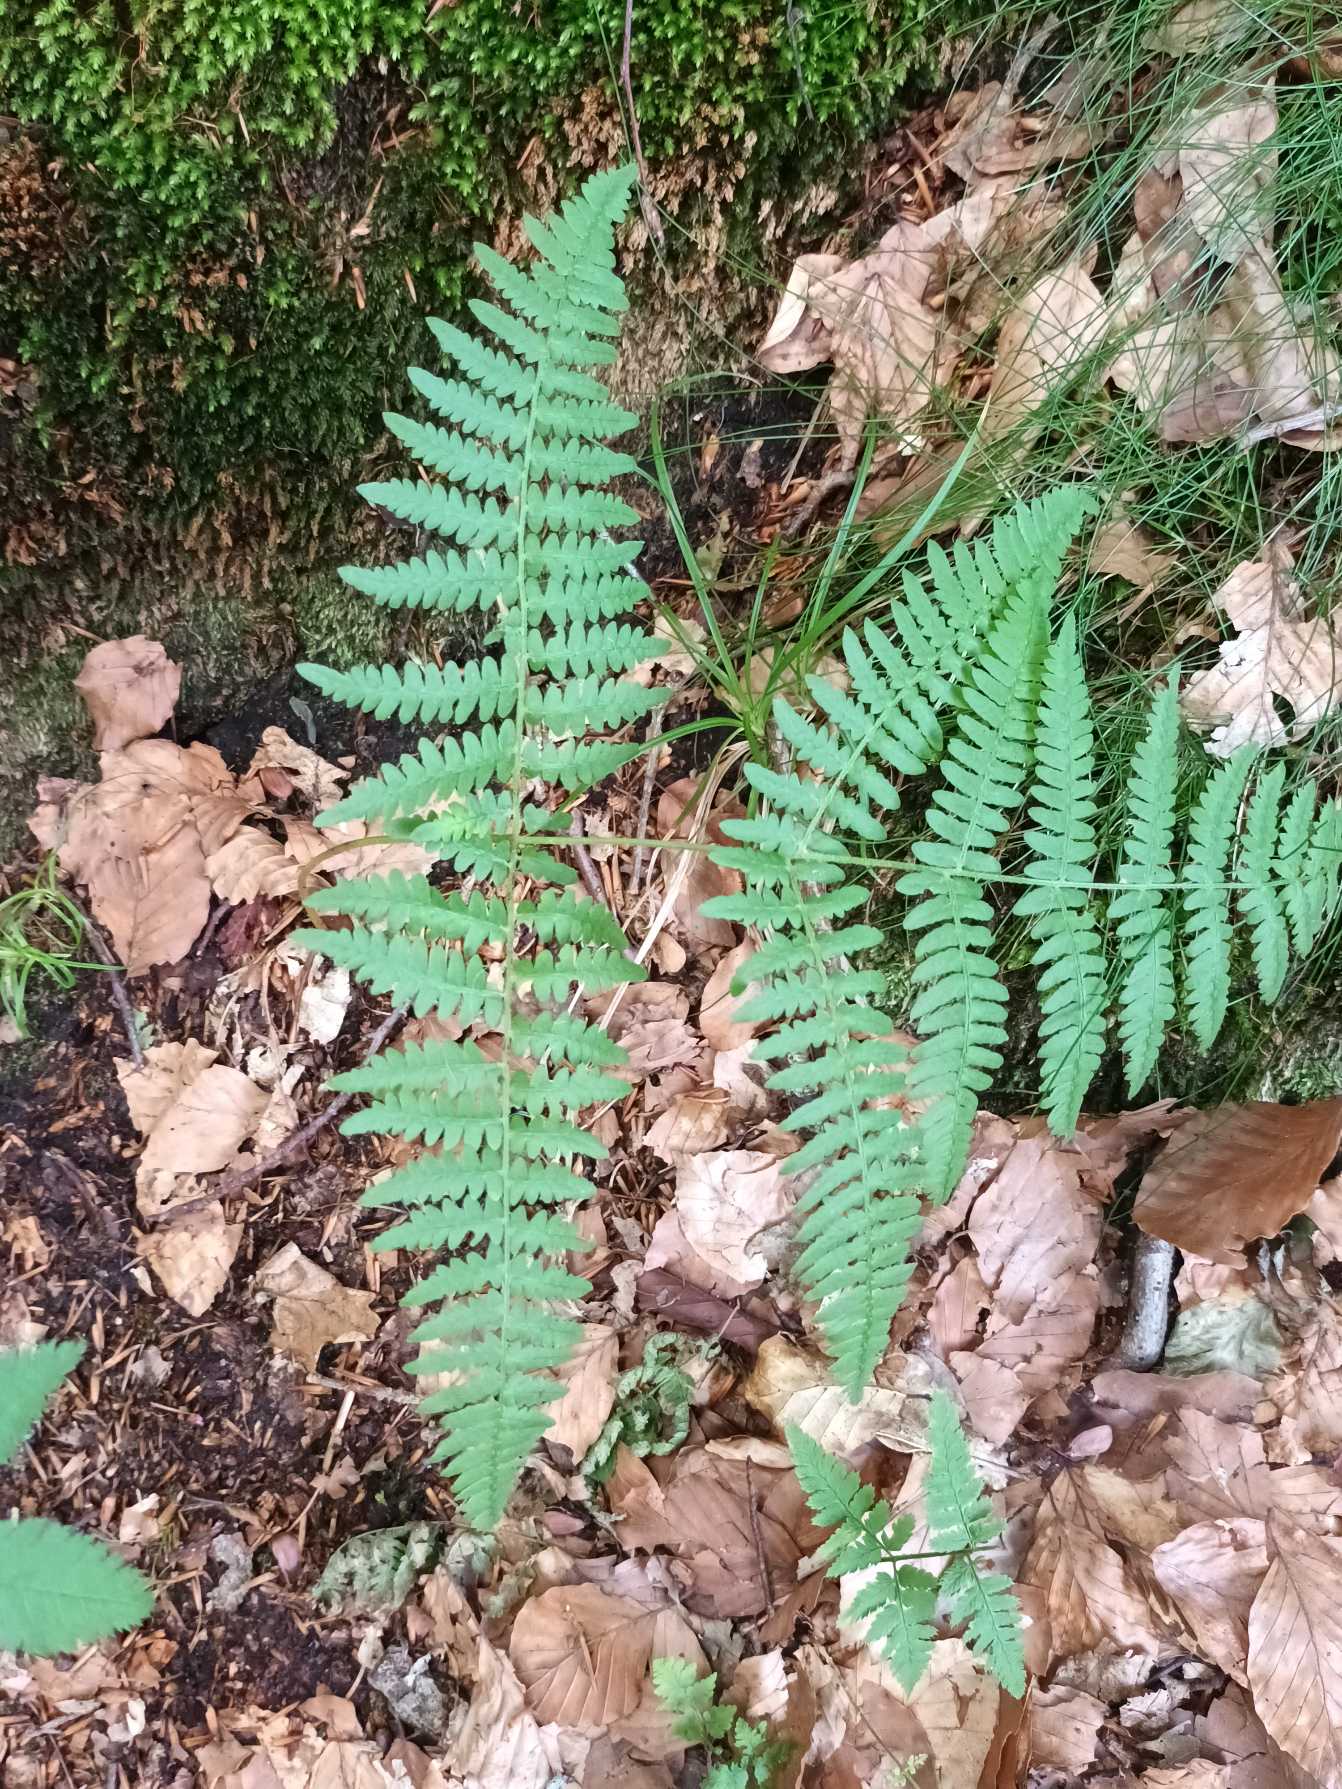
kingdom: Plantae
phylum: Tracheophyta
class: Polypodiopsida
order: Polypodiales
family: Dennstaedtiaceae
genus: Pteridium
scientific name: Pteridium aquilinum
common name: Ørnebregne
